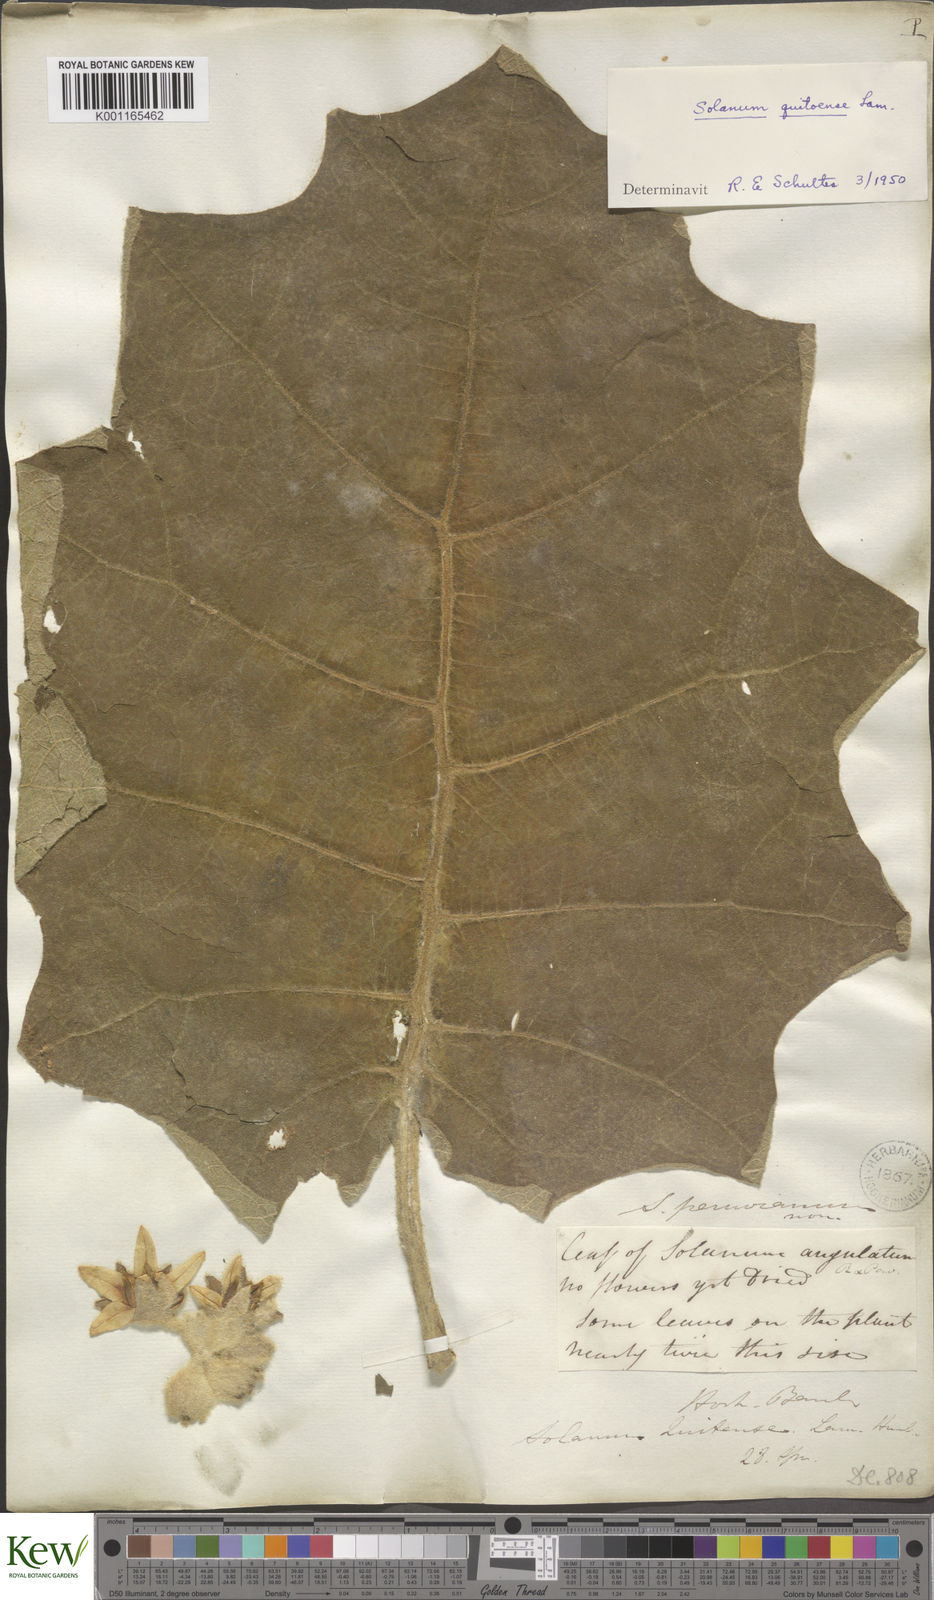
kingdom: Plantae
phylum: Tracheophyta
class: Magnoliopsida
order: Solanales
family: Solanaceae
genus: Solanum
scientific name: Solanum quitoense
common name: Quito-orange
